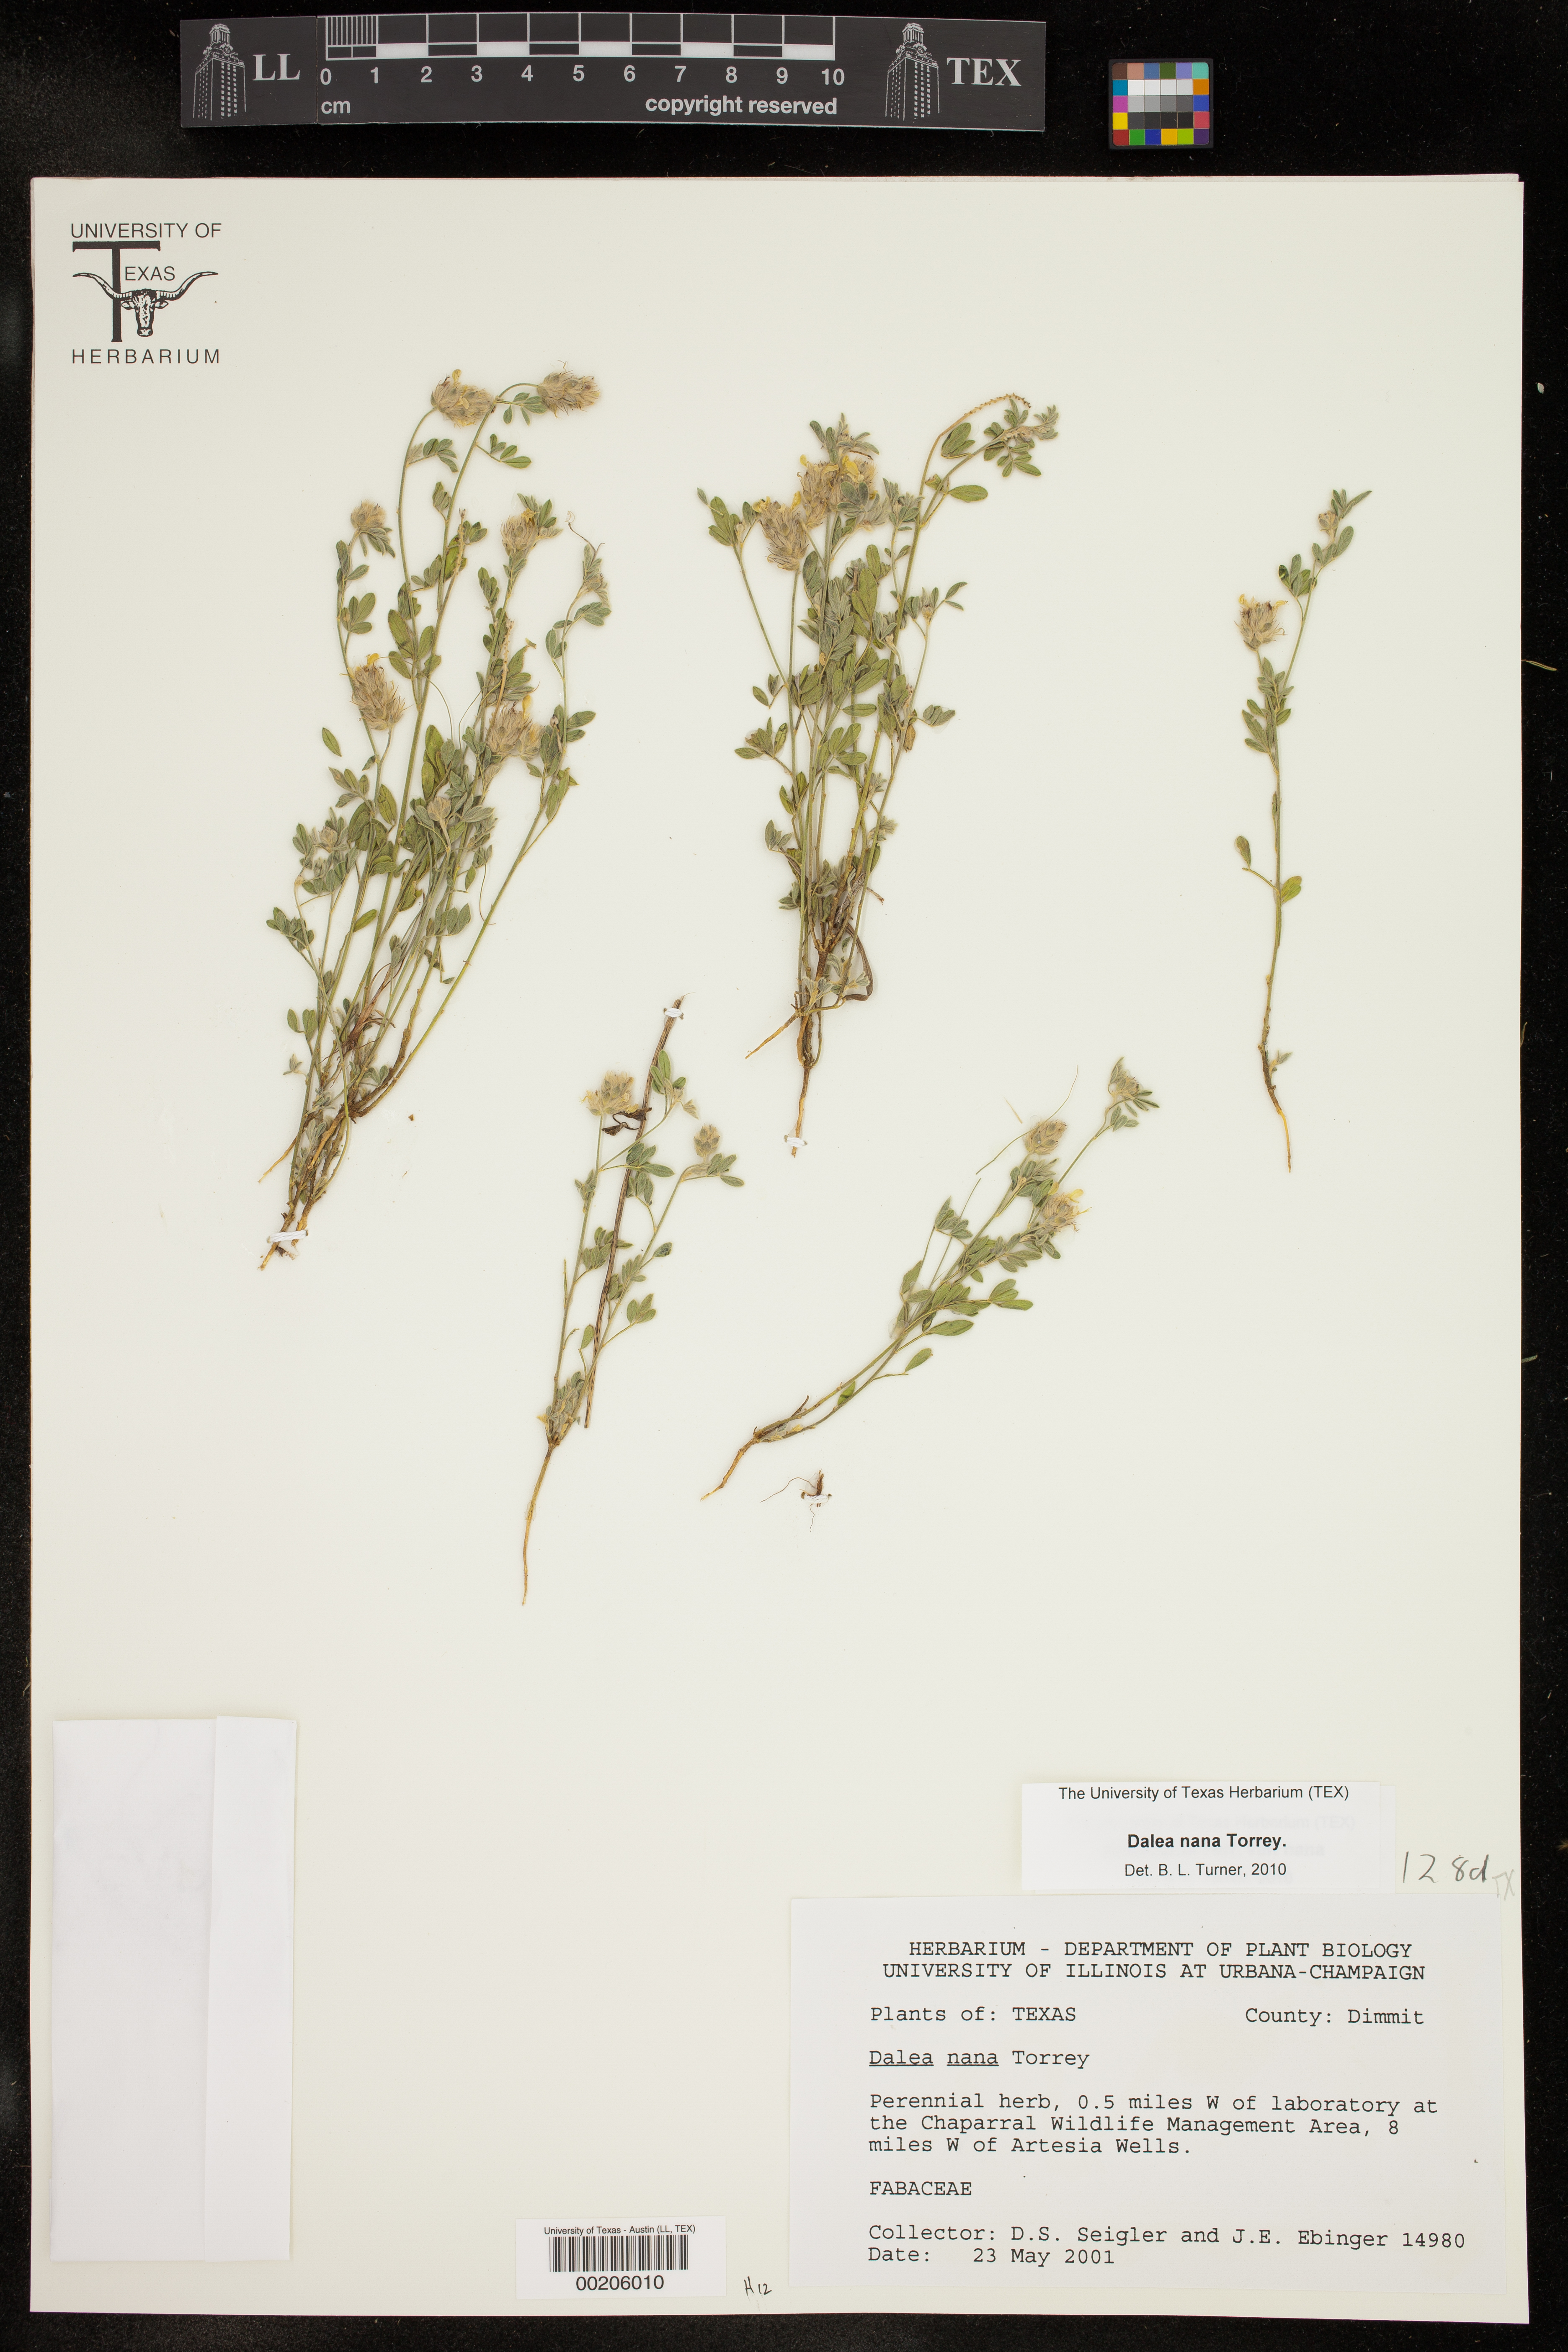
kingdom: Plantae
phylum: Tracheophyta
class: Magnoliopsida
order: Fabales
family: Fabaceae
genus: Dalea
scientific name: Dalea nana
